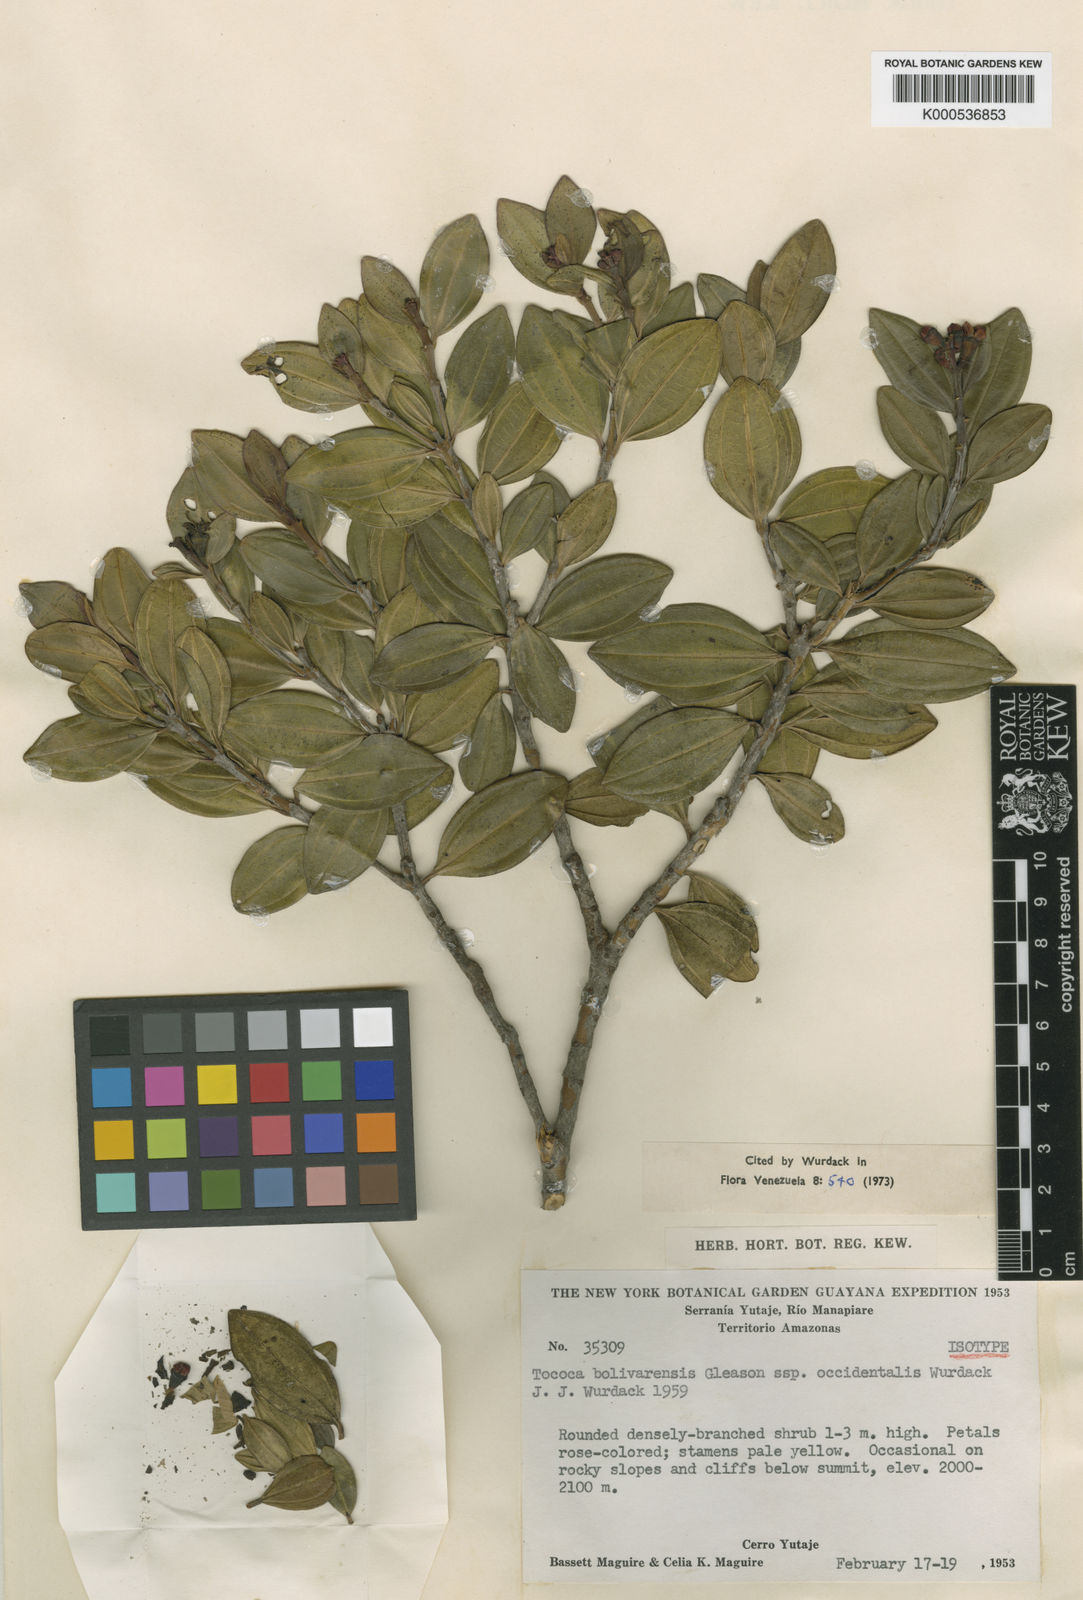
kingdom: Plantae
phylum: Tracheophyta
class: Magnoliopsida
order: Myrtales
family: Melastomataceae
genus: Miconia
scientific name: Miconia raggiana
